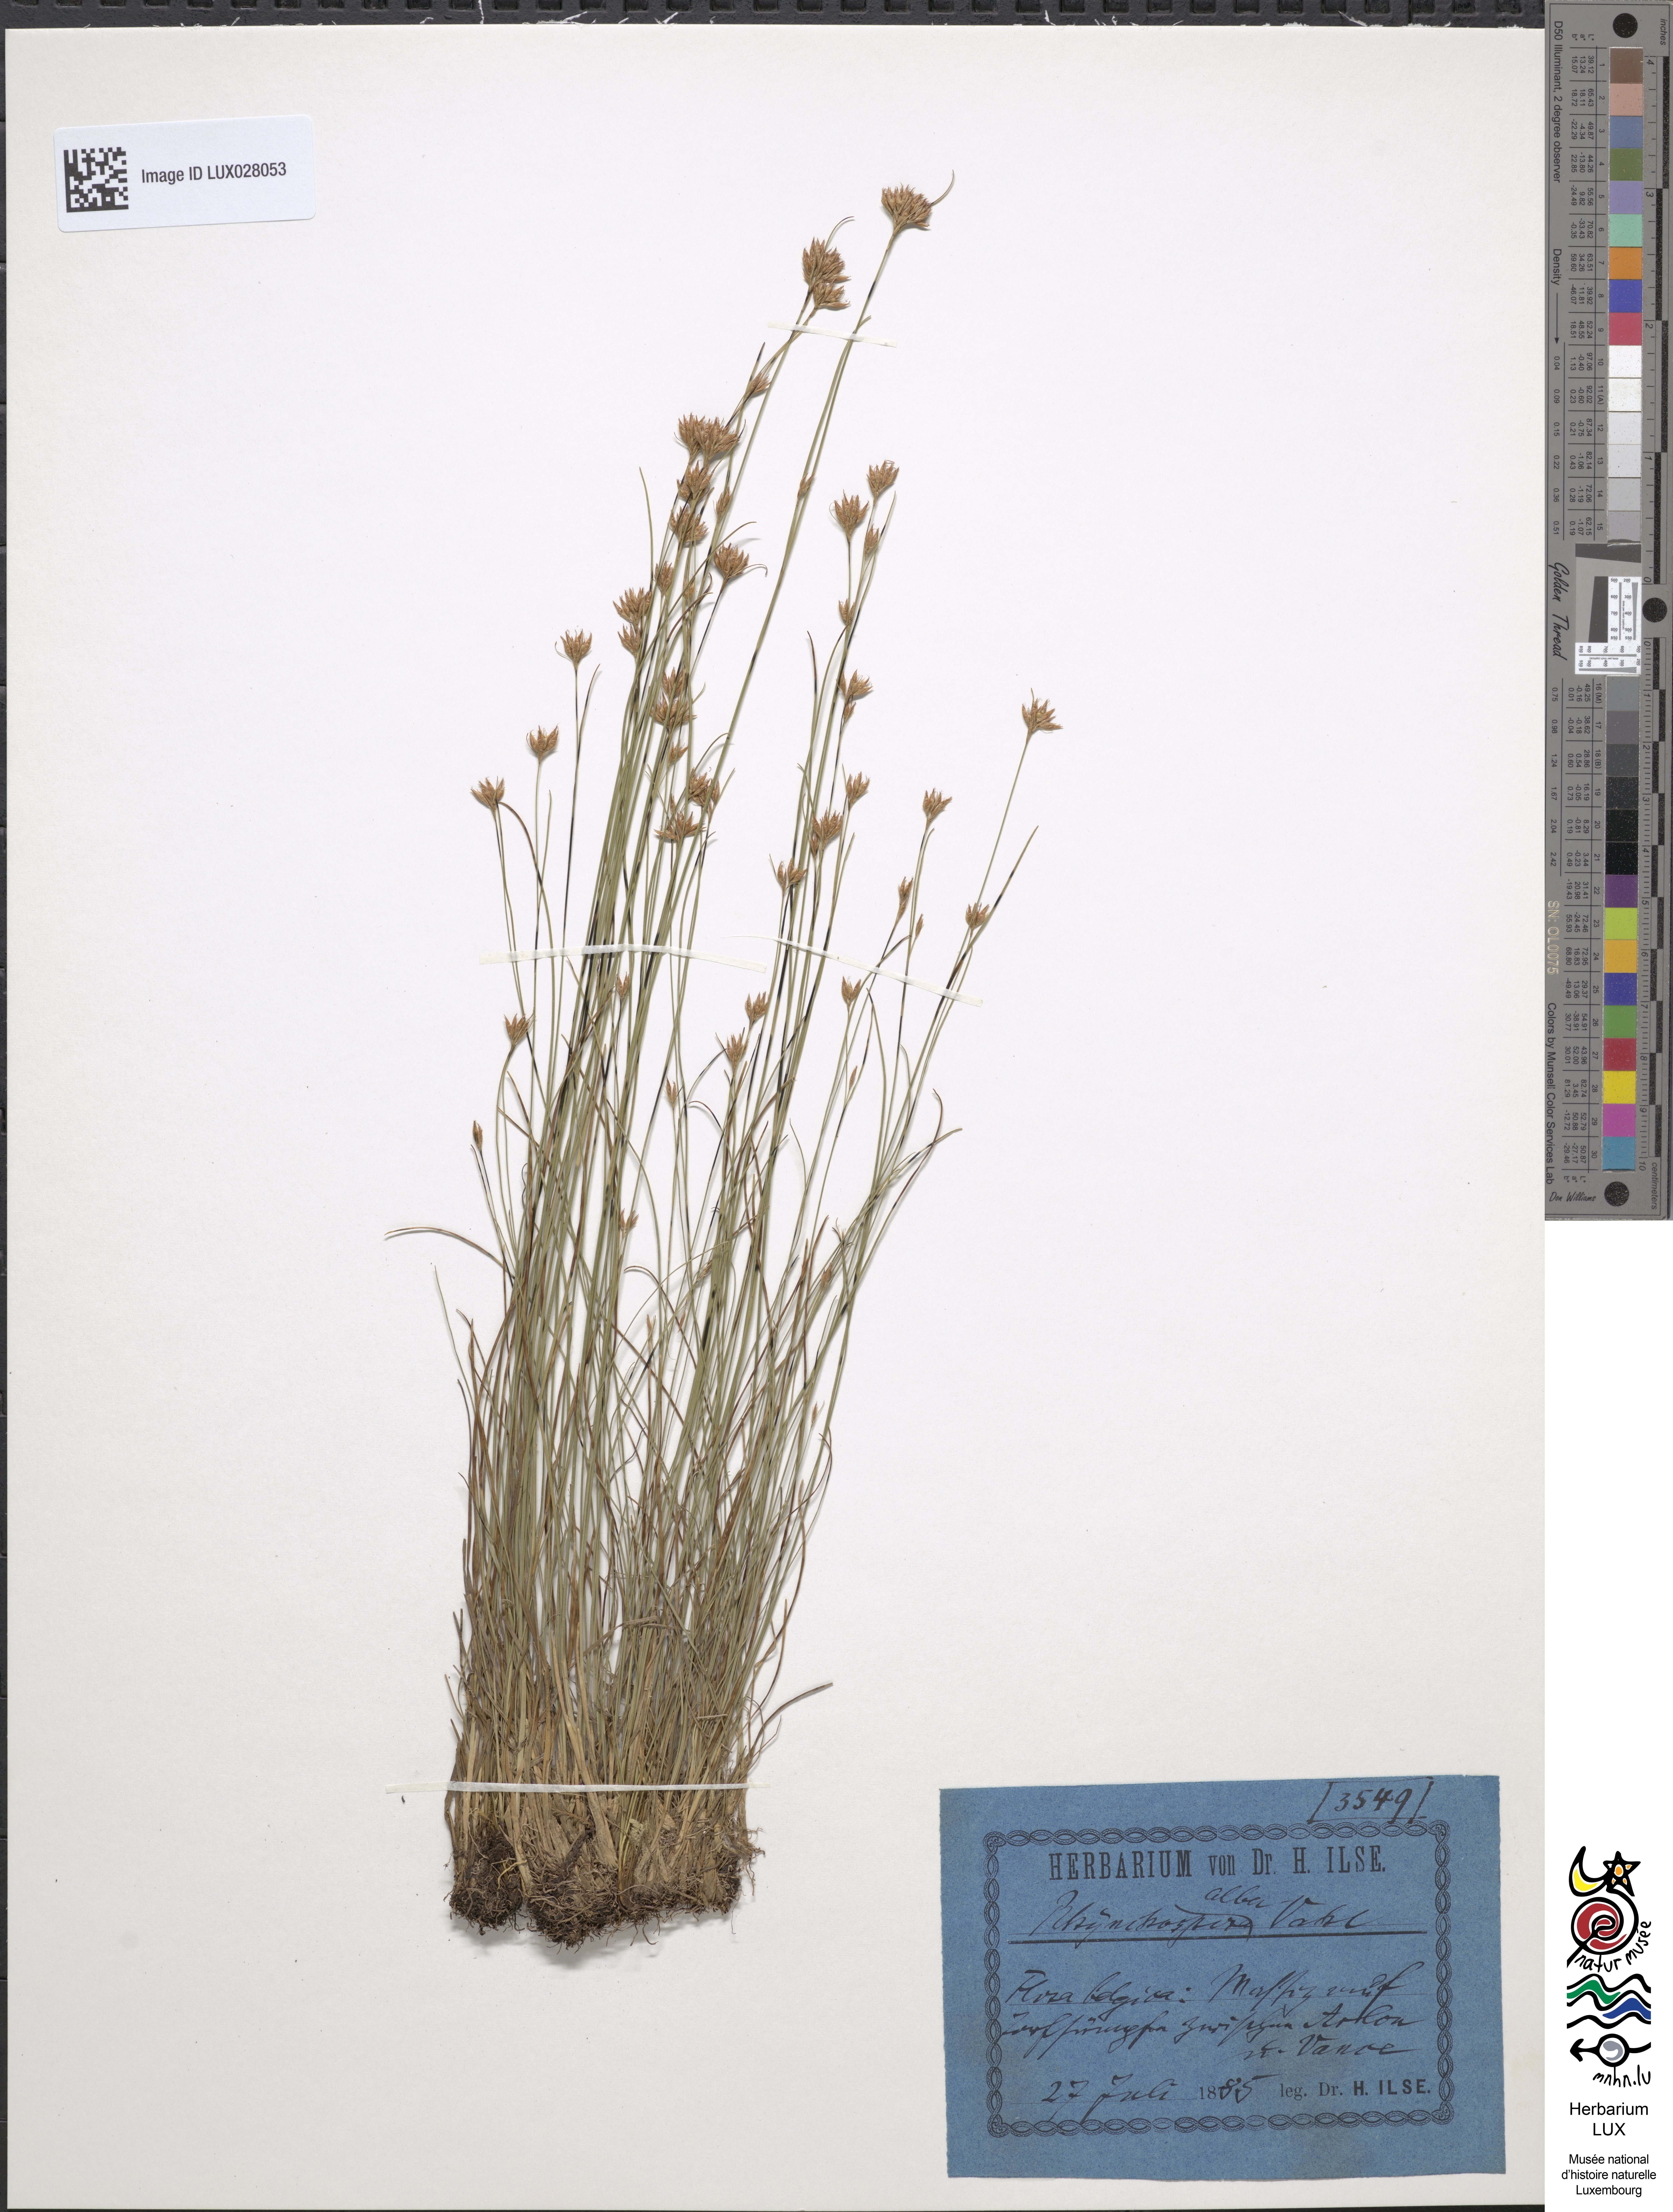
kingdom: Plantae
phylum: Tracheophyta
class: Liliopsida
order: Poales
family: Cyperaceae
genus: Rhynchospora
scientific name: Rhynchospora alba
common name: White beak-sedge
